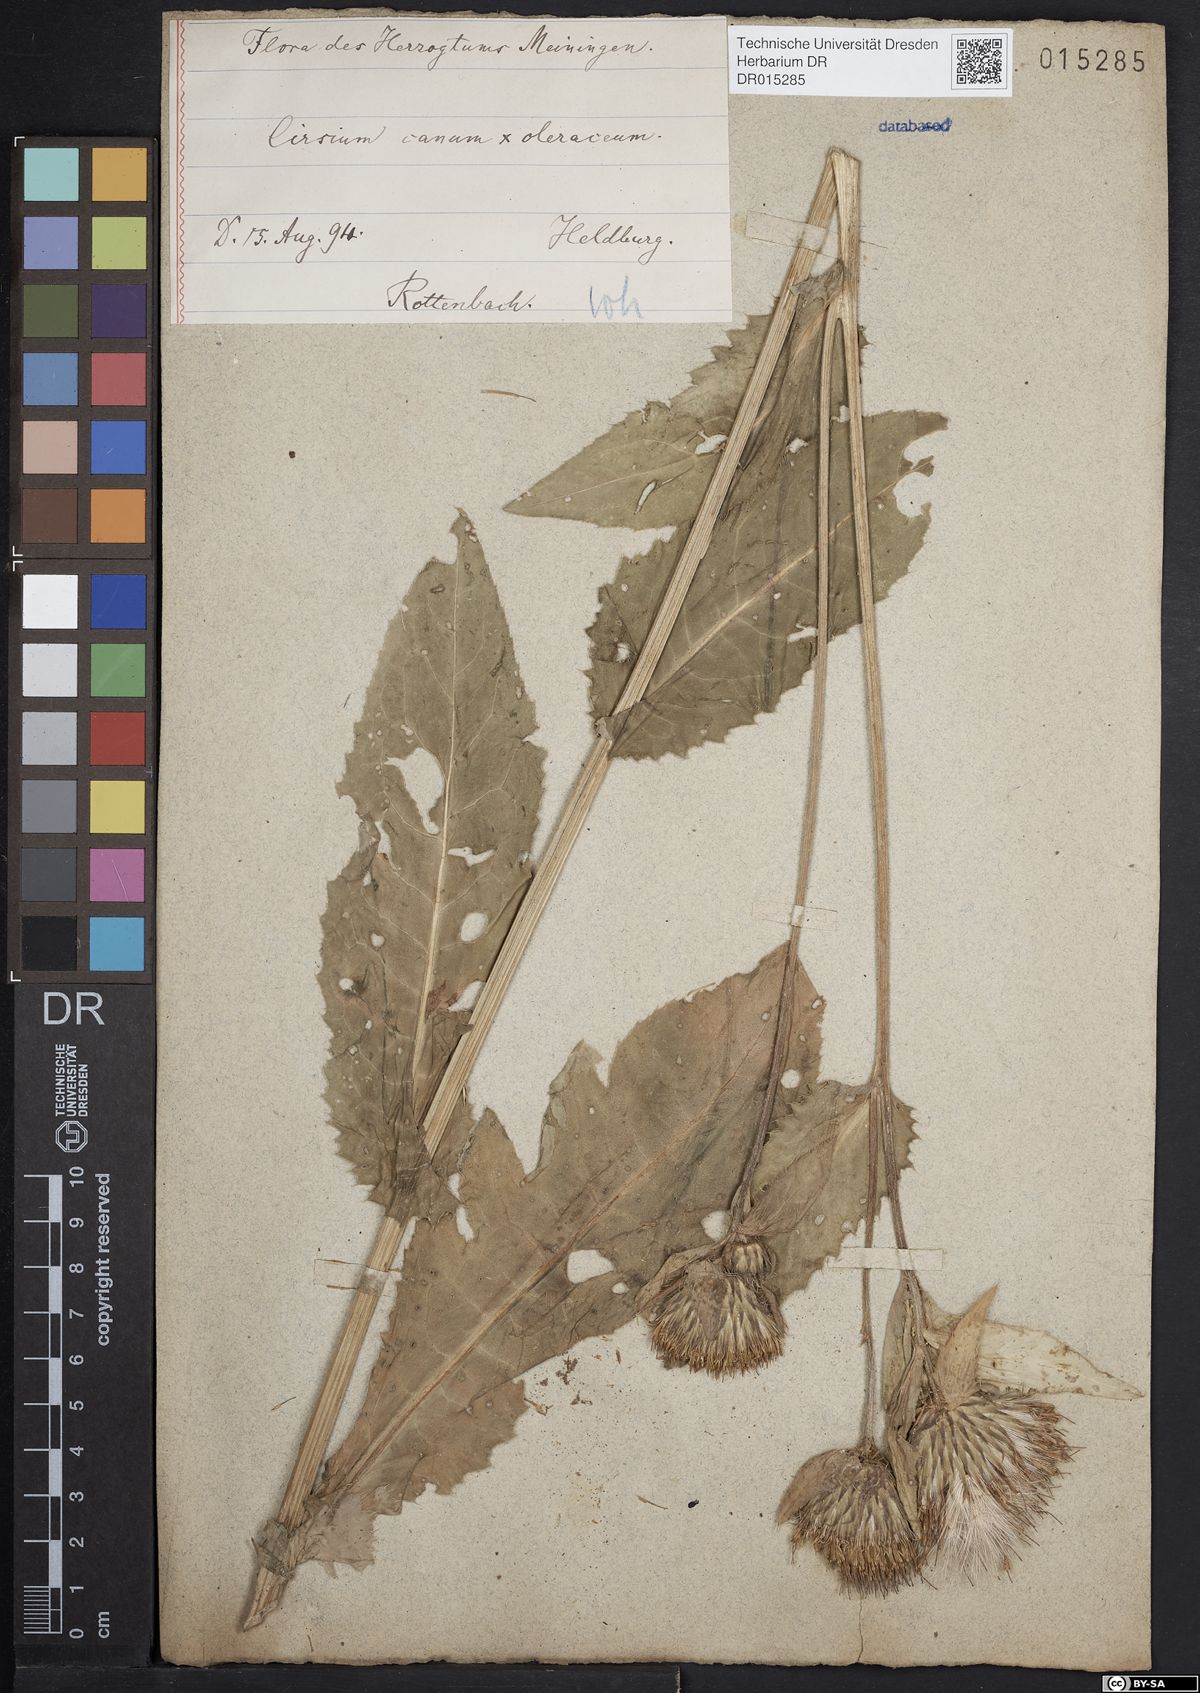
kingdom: Plantae
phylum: Tracheophyta
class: Magnoliopsida
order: Asterales
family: Asteraceae
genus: Cirsium
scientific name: Cirsium tataricum
